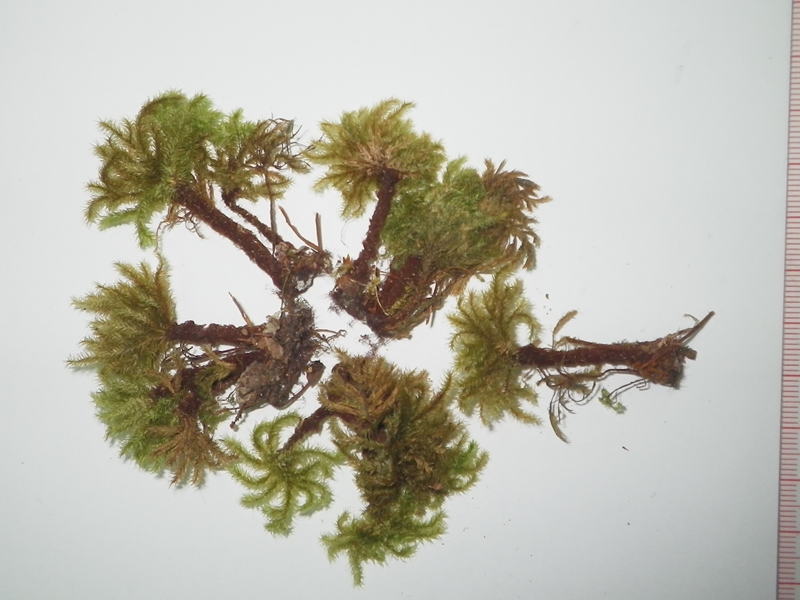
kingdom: Plantae
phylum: Bryophyta
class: Bryopsida
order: Hypnodendrales
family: Spiridentaceae
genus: Mniodendron
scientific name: Mniodendron dendroides
